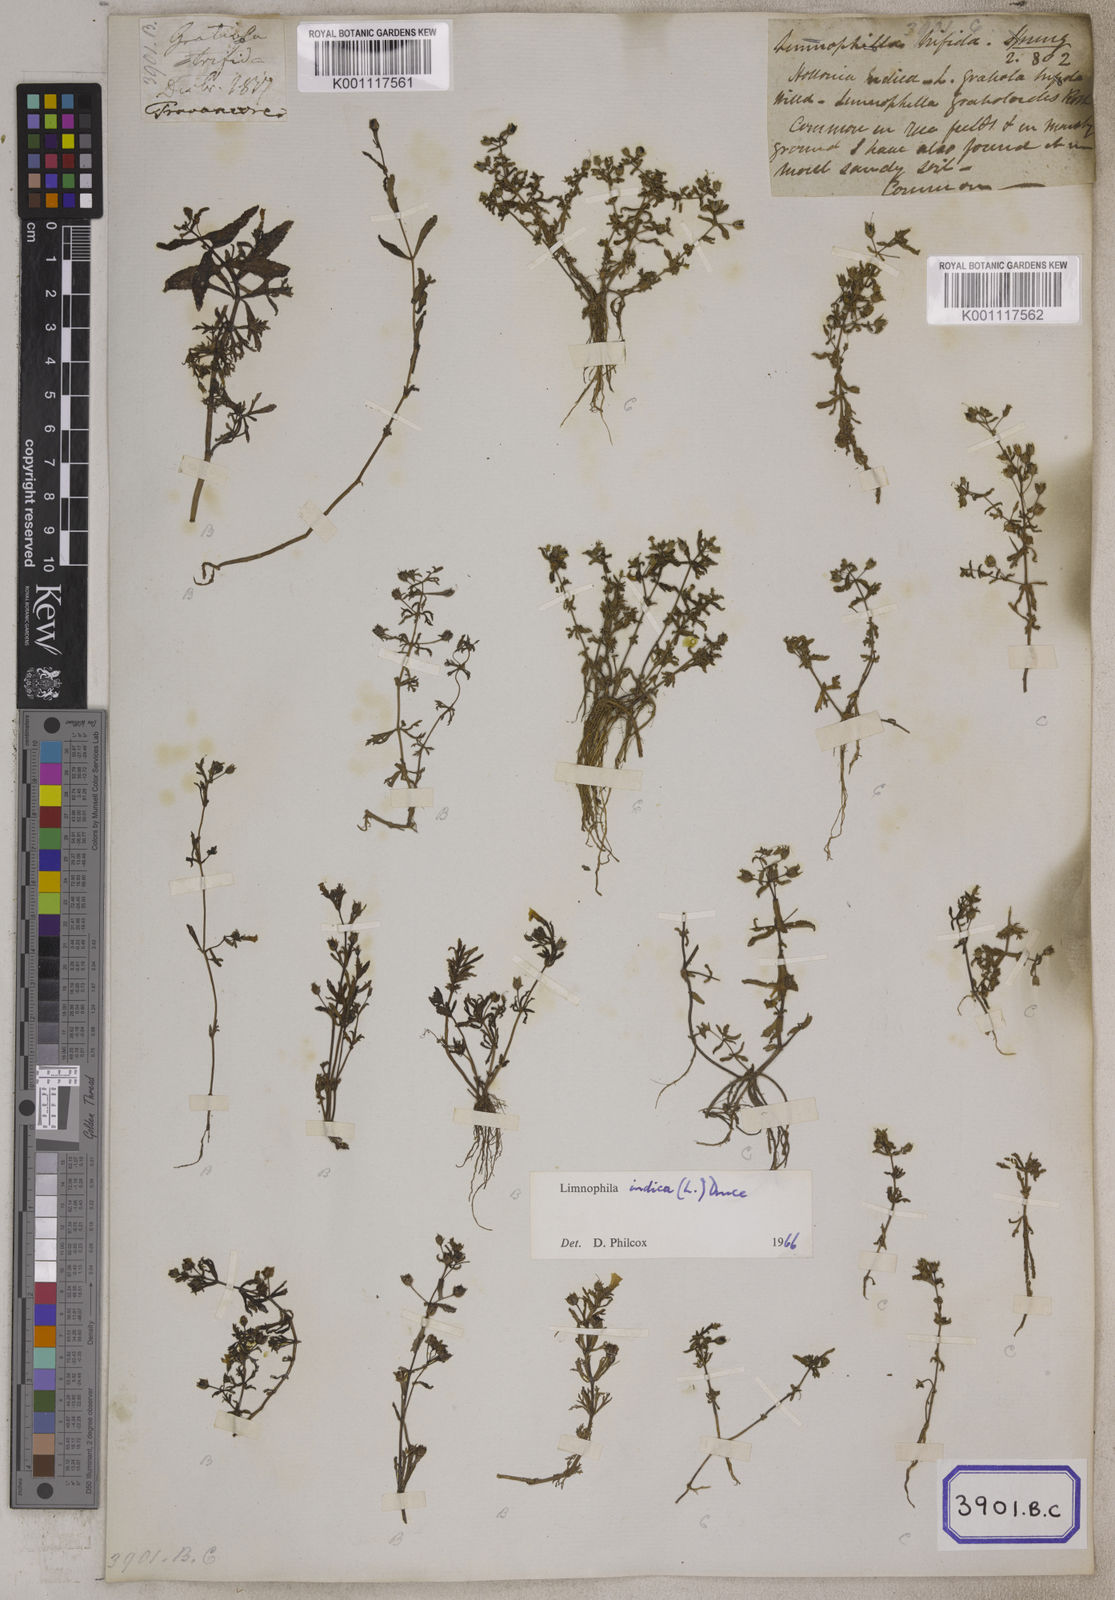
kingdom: Plantae
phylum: Tracheophyta
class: Magnoliopsida
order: Lamiales
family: Plantaginaceae
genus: Limnophila
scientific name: Limnophila indica
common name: Indian marshweed
